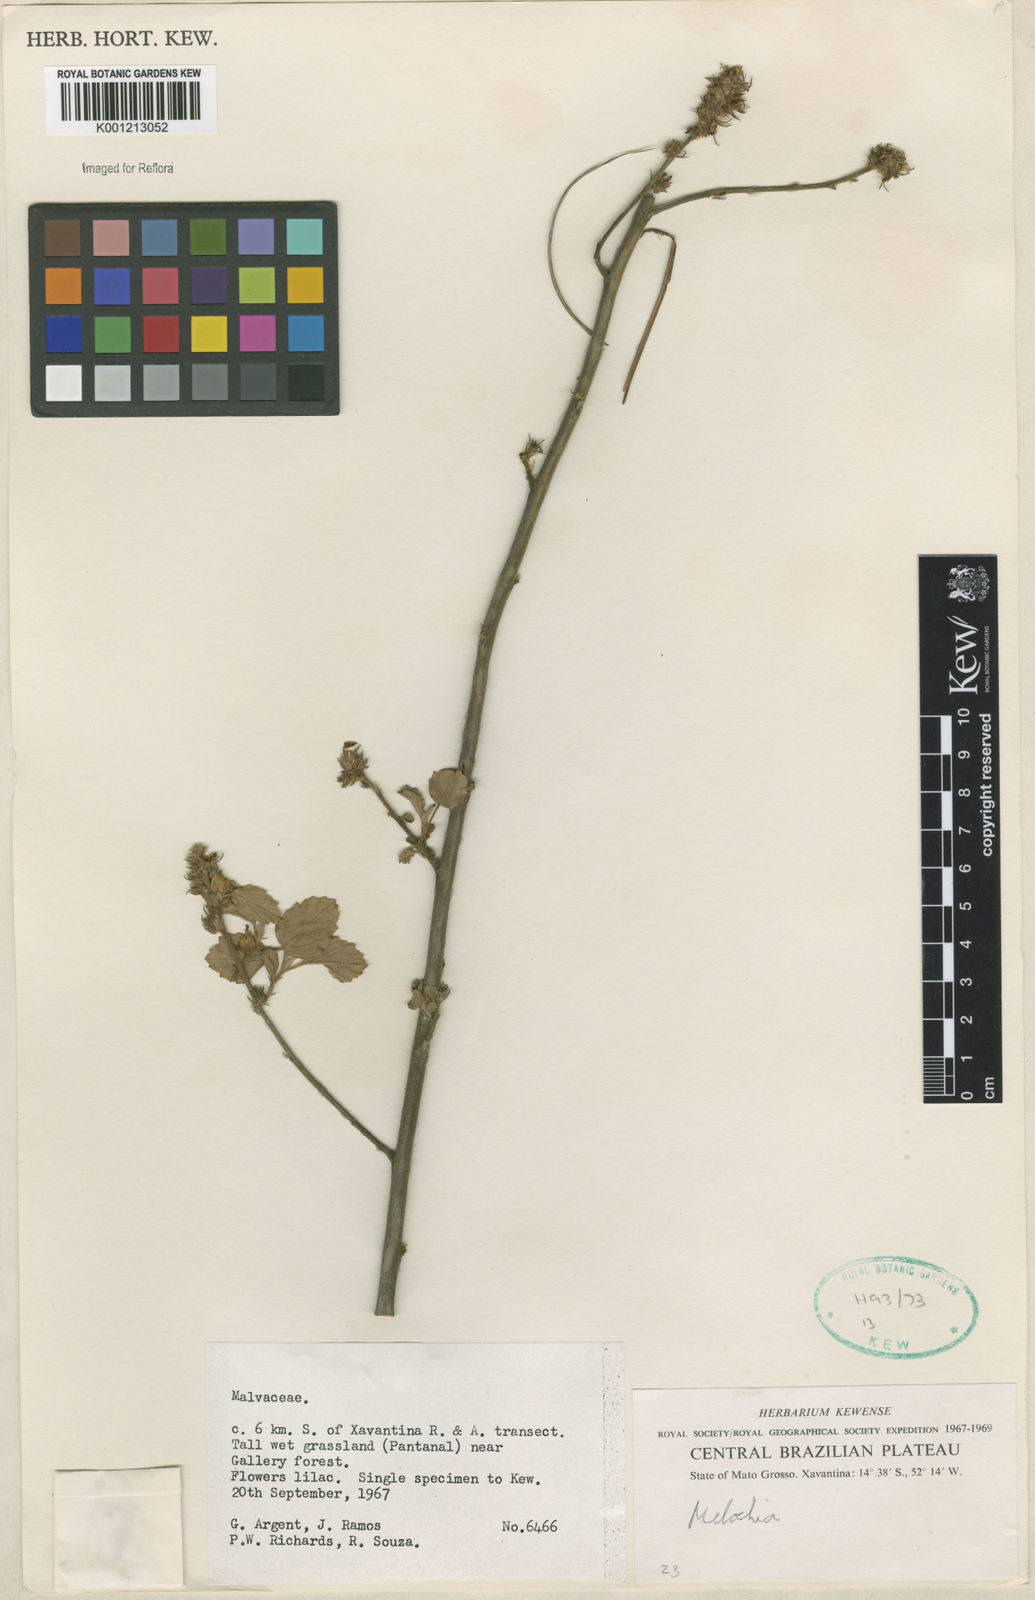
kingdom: Plantae
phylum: Tracheophyta
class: Magnoliopsida
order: Malvales
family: Malvaceae
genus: Melochia
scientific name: Melochia
